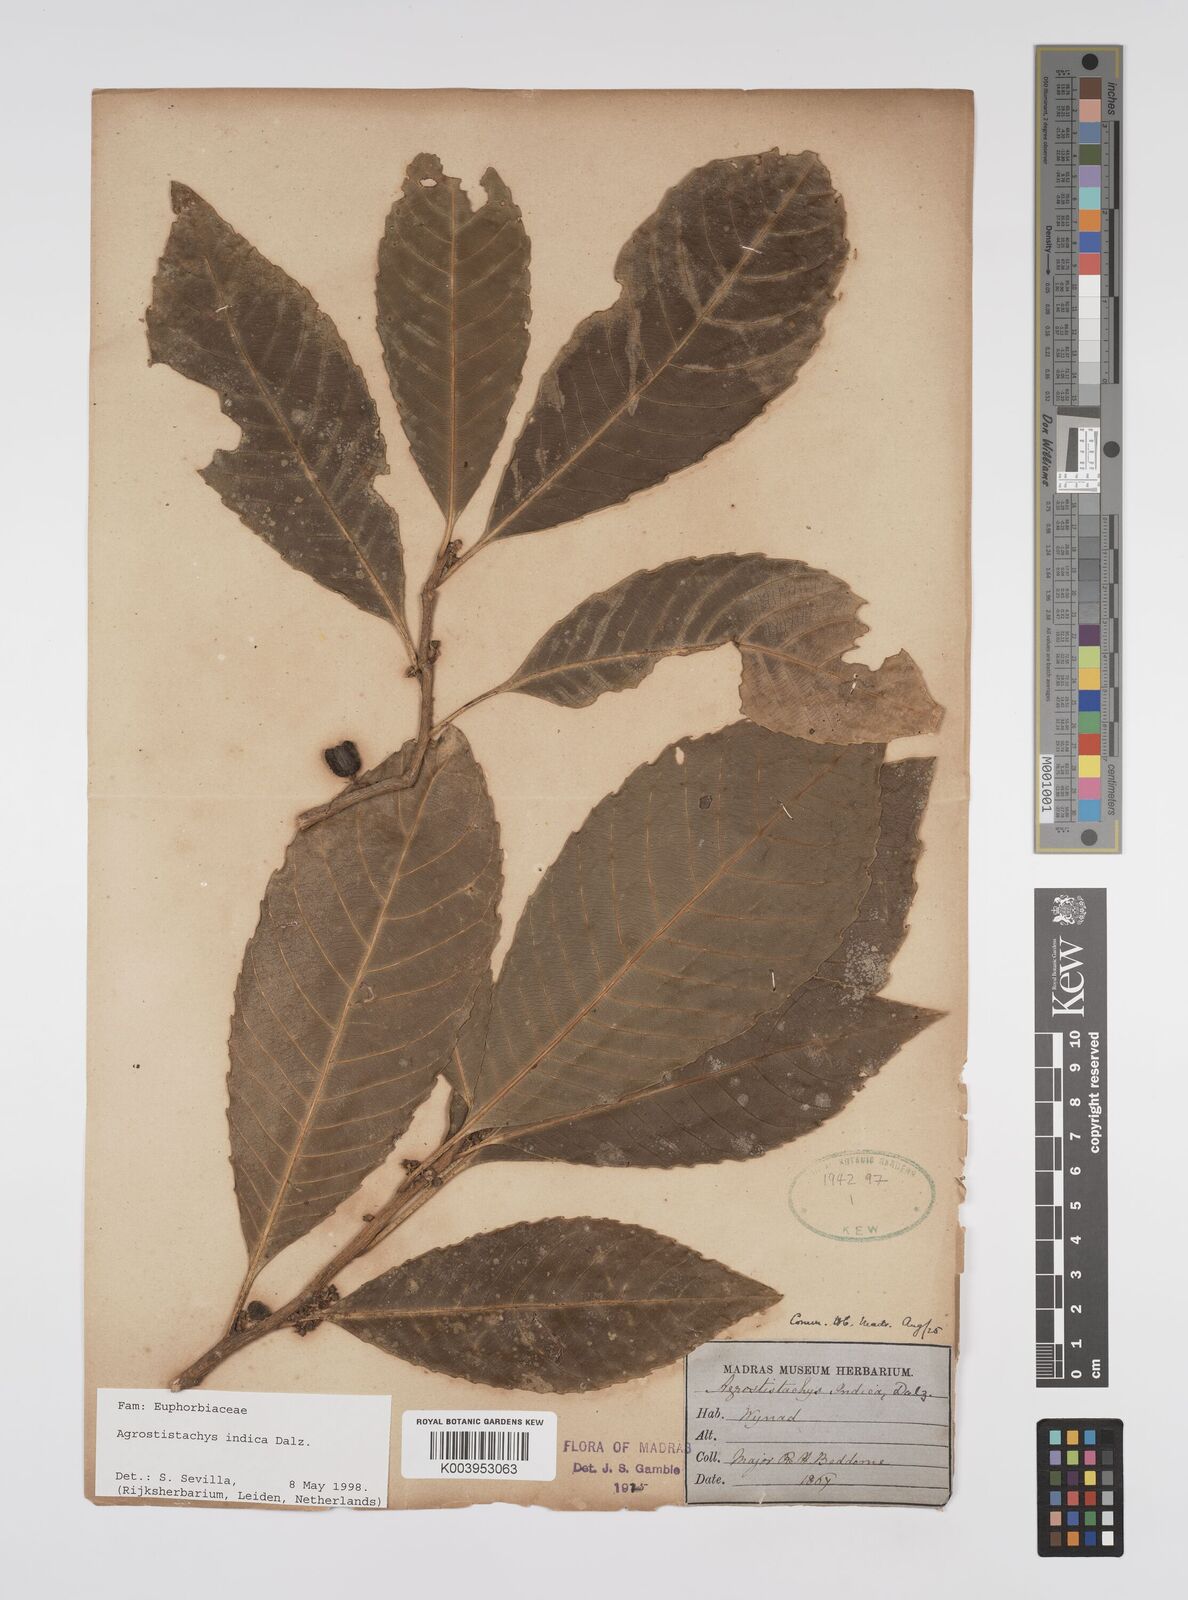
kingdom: Plantae
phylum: Tracheophyta
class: Magnoliopsida
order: Malpighiales
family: Euphorbiaceae
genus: Agrostistachys
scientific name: Agrostistachys indica
